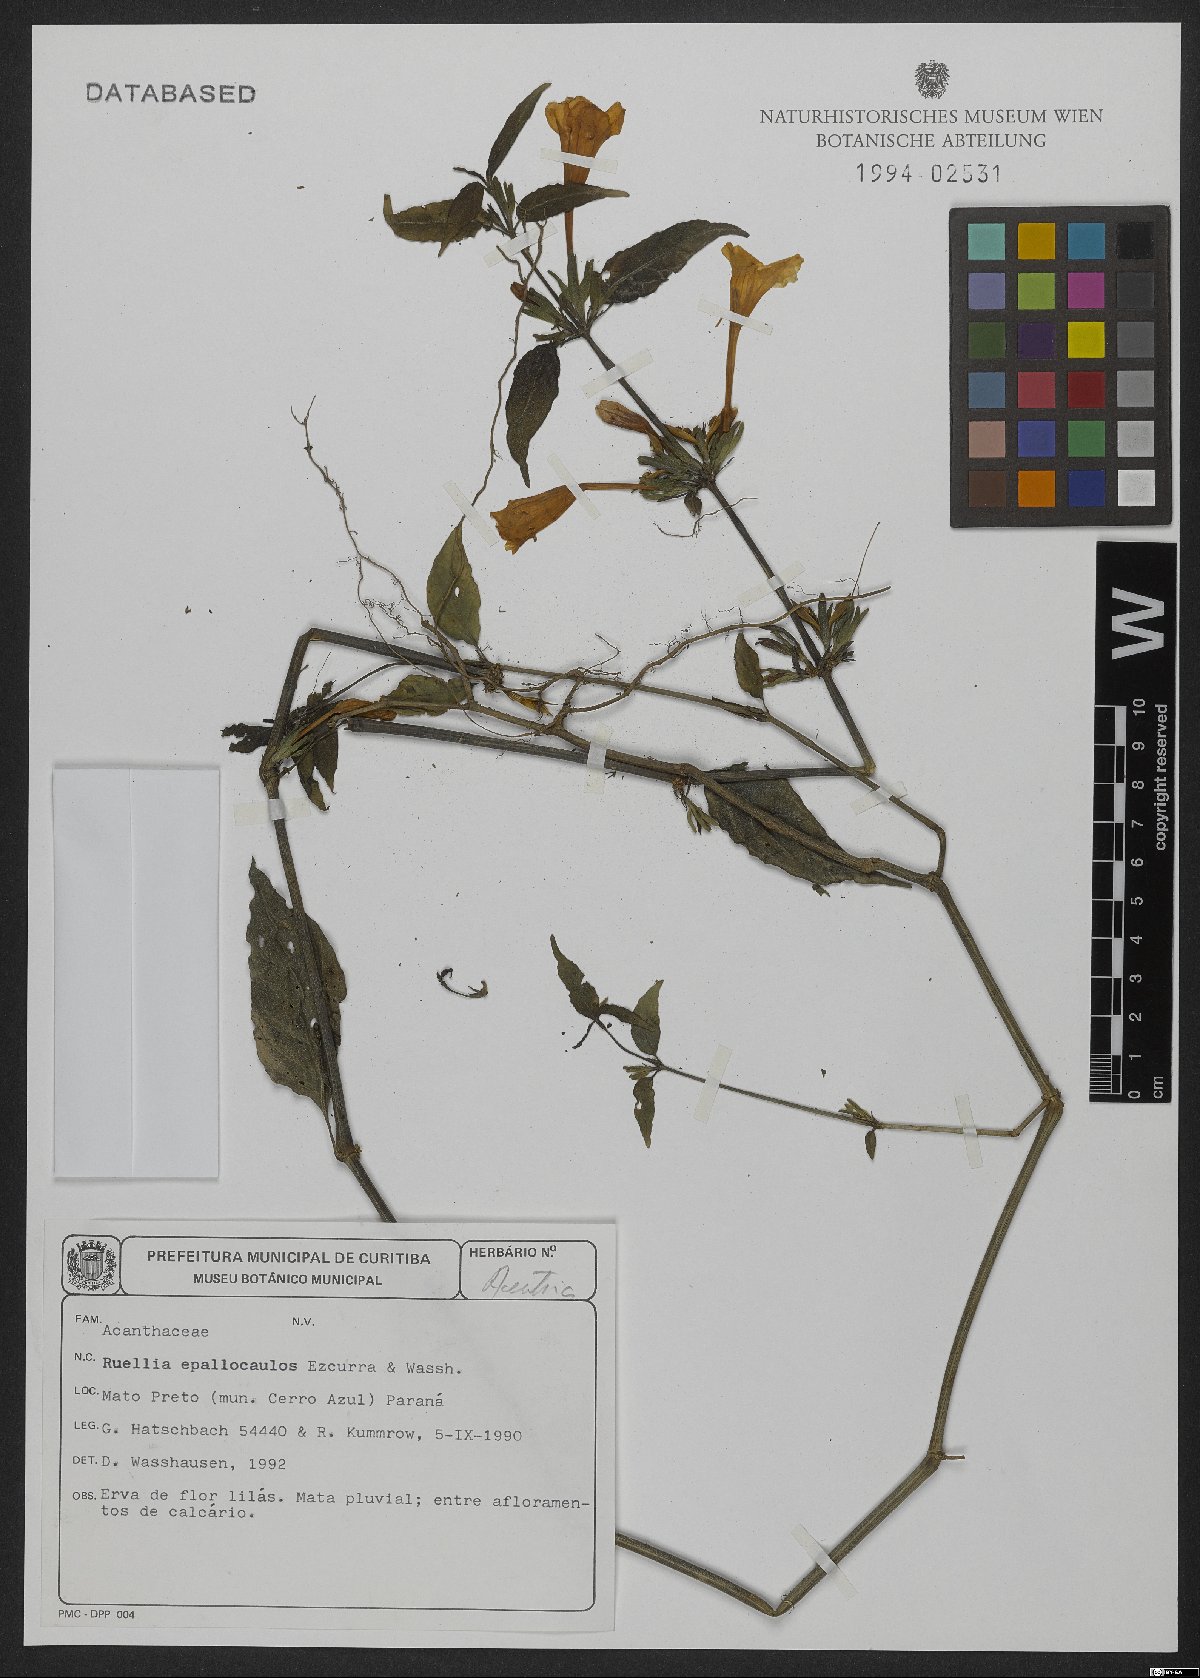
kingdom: Plantae
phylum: Tracheophyta
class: Magnoliopsida
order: Lamiales
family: Acanthaceae
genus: Ruellia
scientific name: Ruellia epallocaulos
